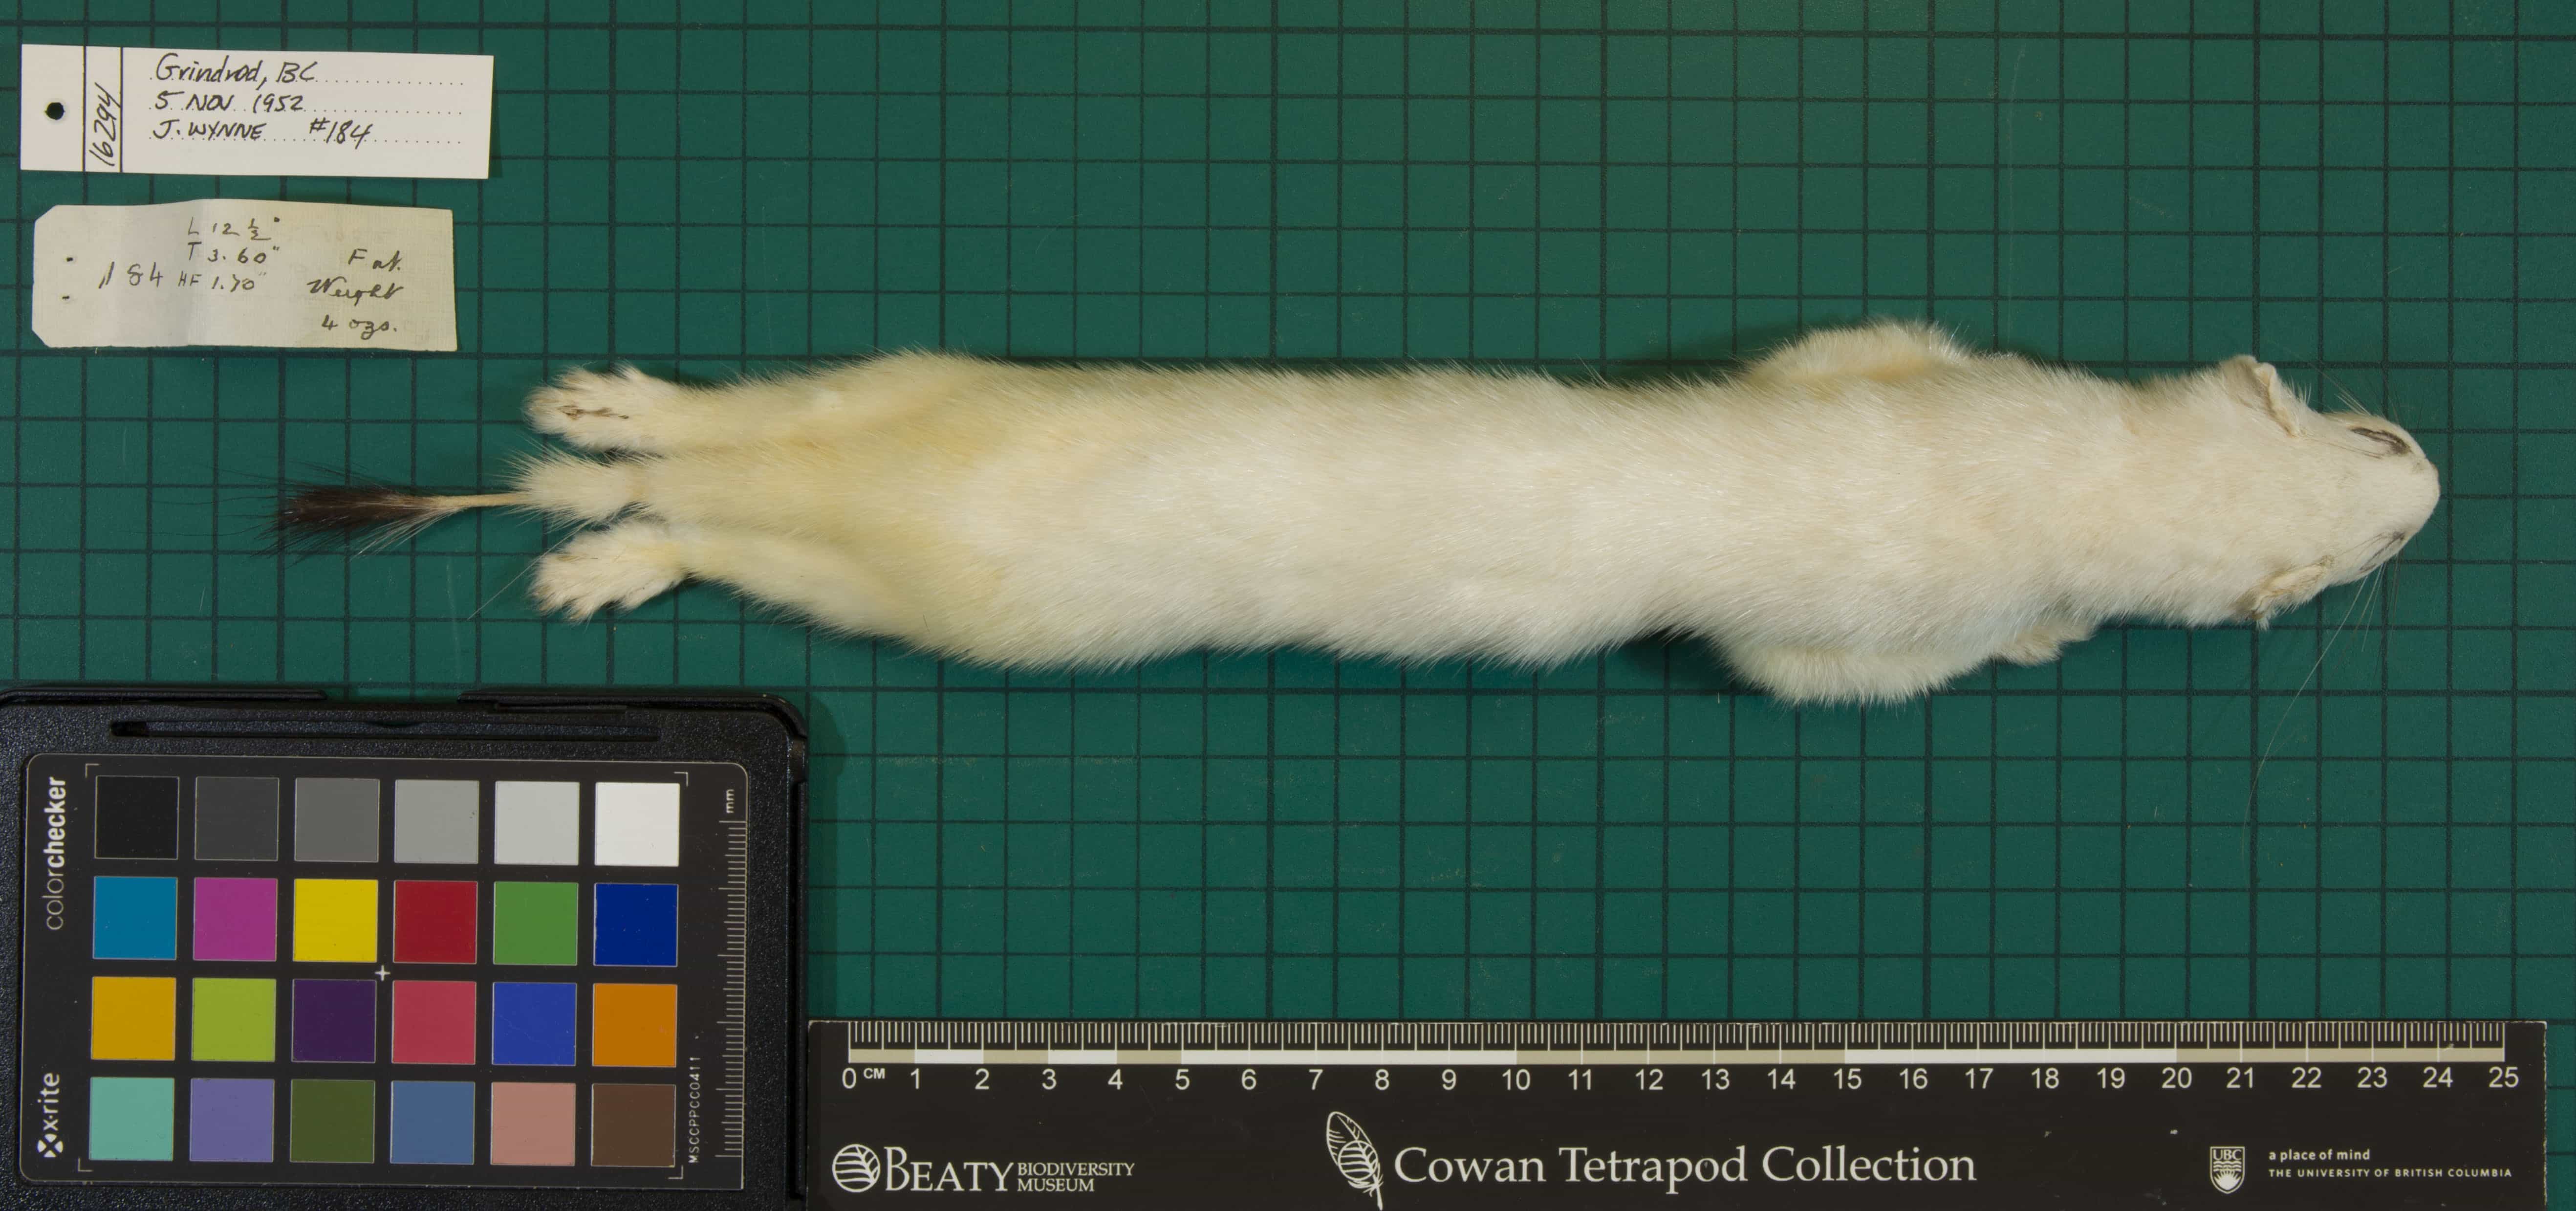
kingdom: Animalia
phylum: Chordata
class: Mammalia
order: Carnivora
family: Mustelidae
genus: Mustela
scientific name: Mustela erminea
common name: Ermine
